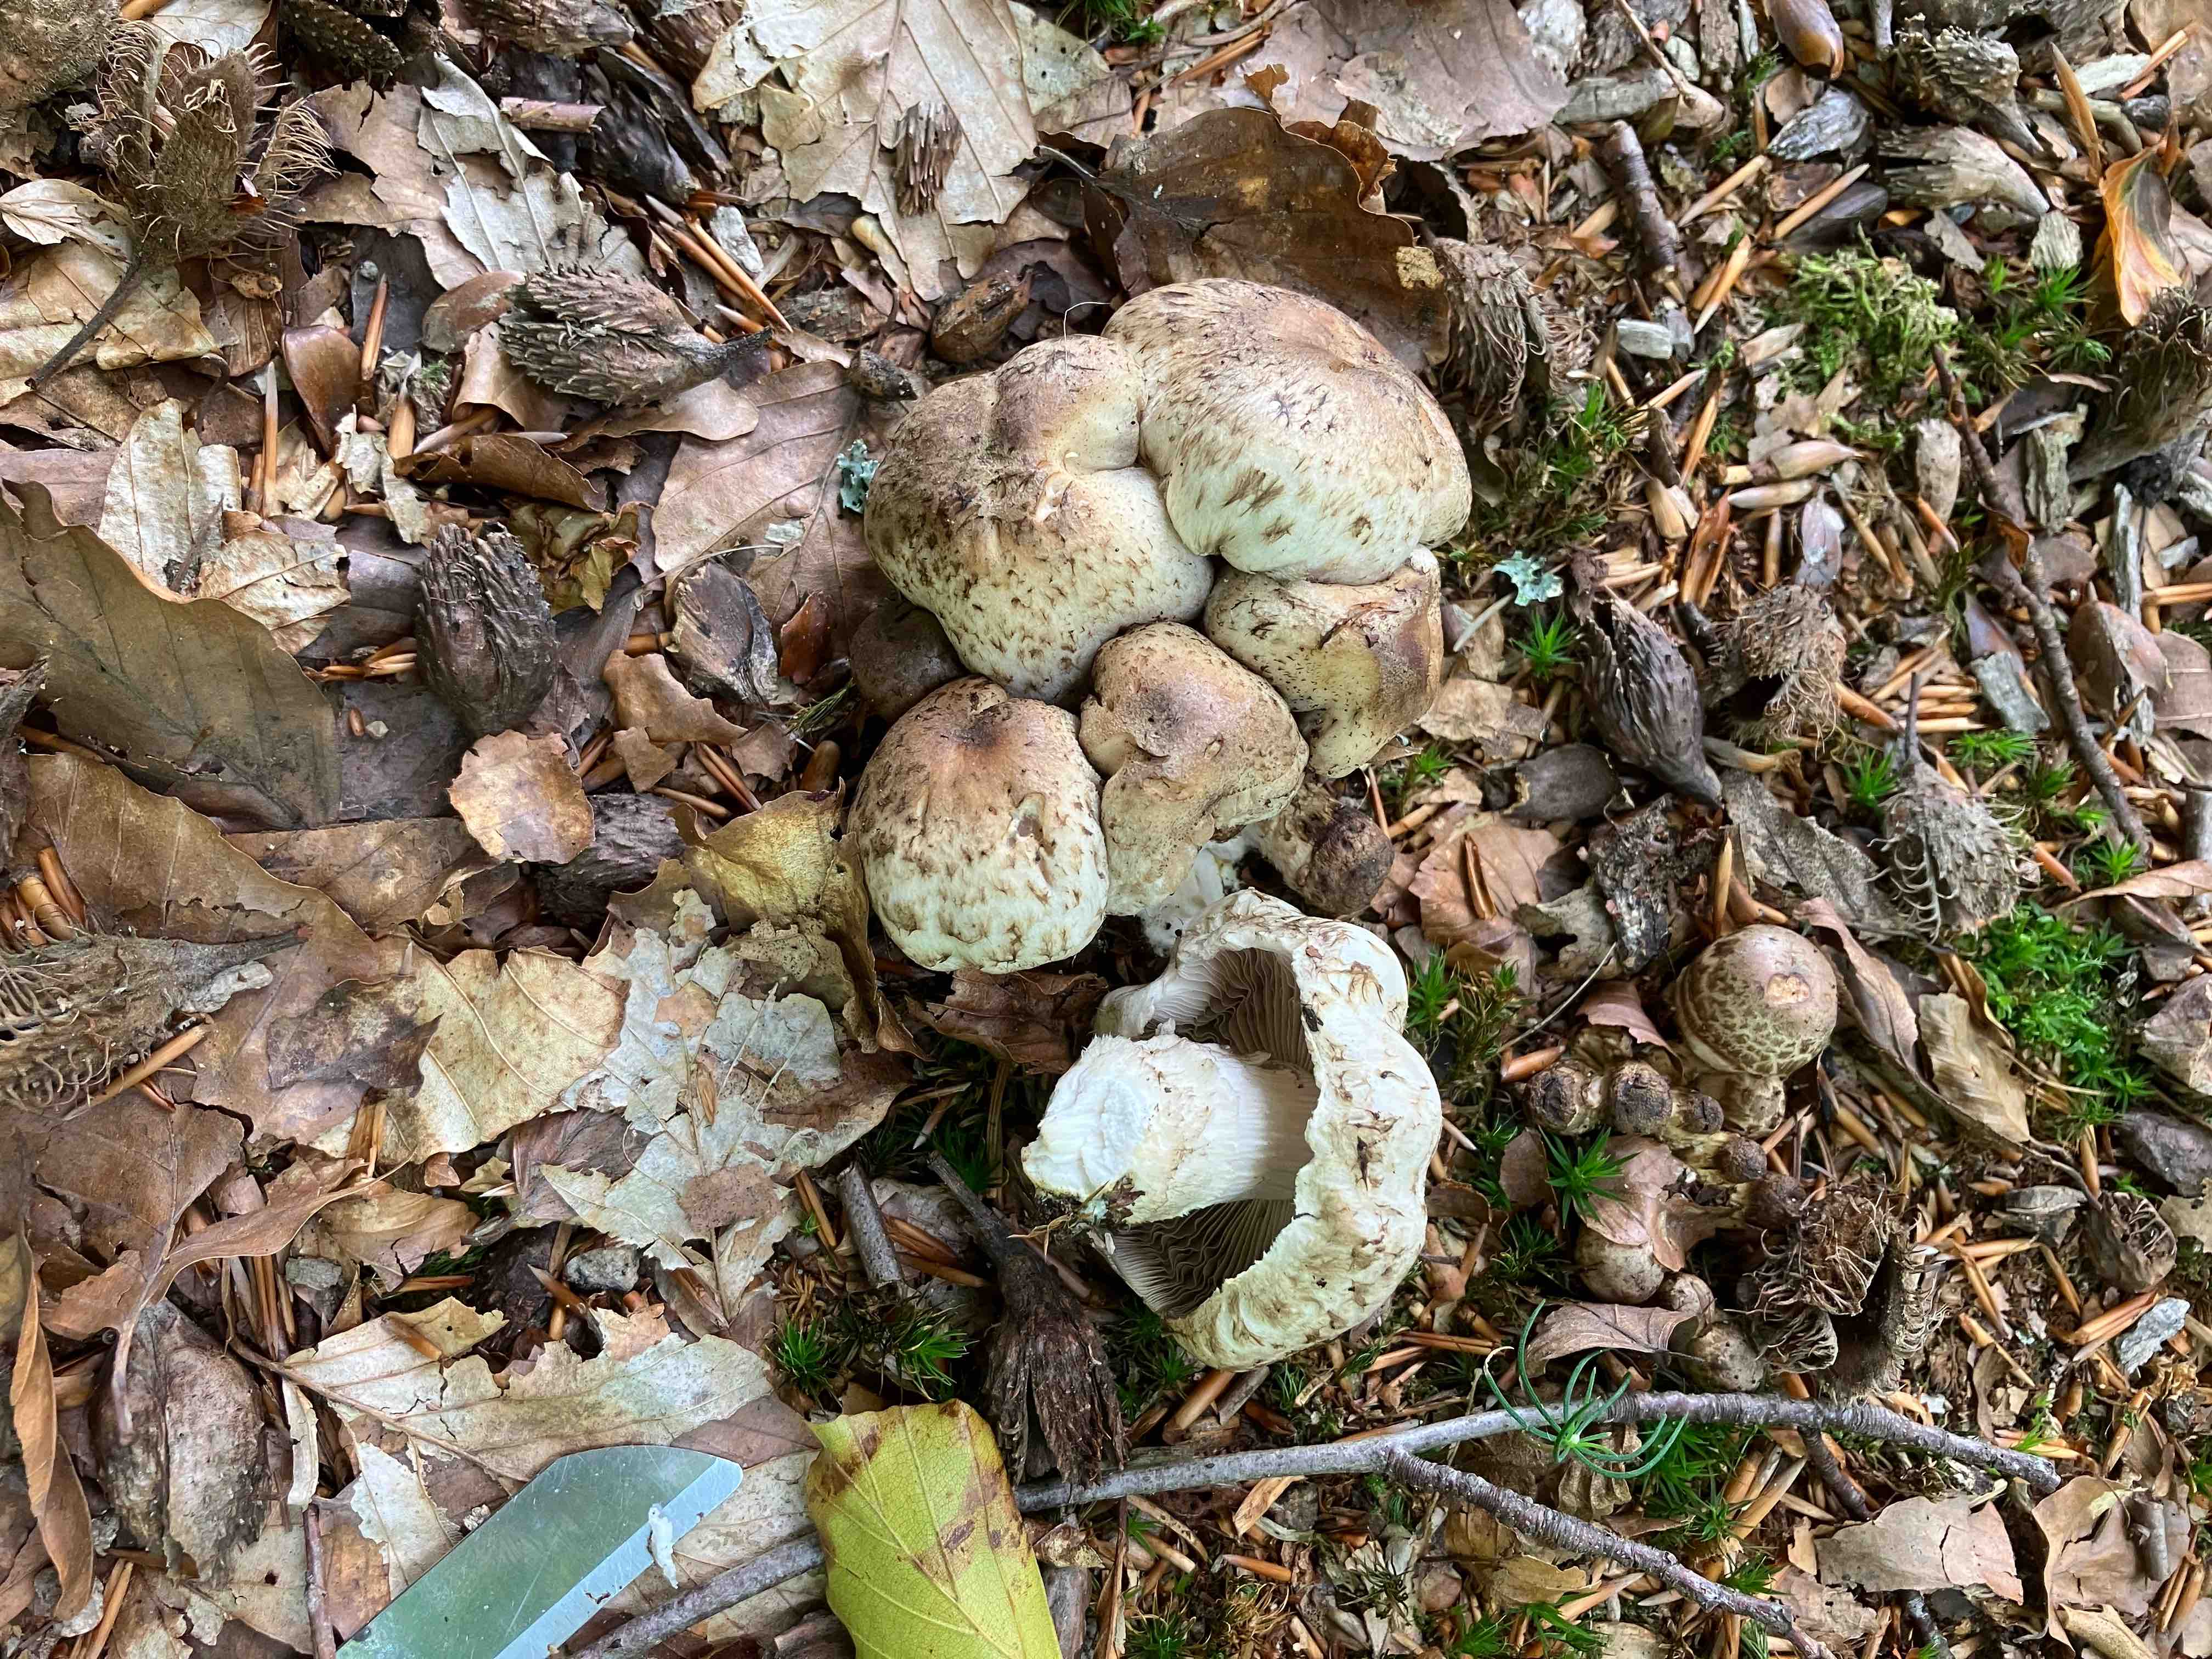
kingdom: Fungi
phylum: Basidiomycota
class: Agaricomycetes
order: Agaricales
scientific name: Agaricales
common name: champignonordenen
